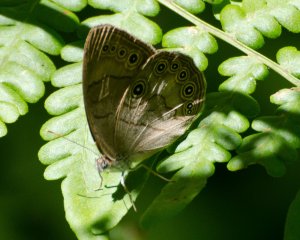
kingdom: Animalia
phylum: Arthropoda
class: Insecta
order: Lepidoptera
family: Nymphalidae
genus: Lethe
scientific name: Lethe anthedon
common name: Northern Pearly-Eye
